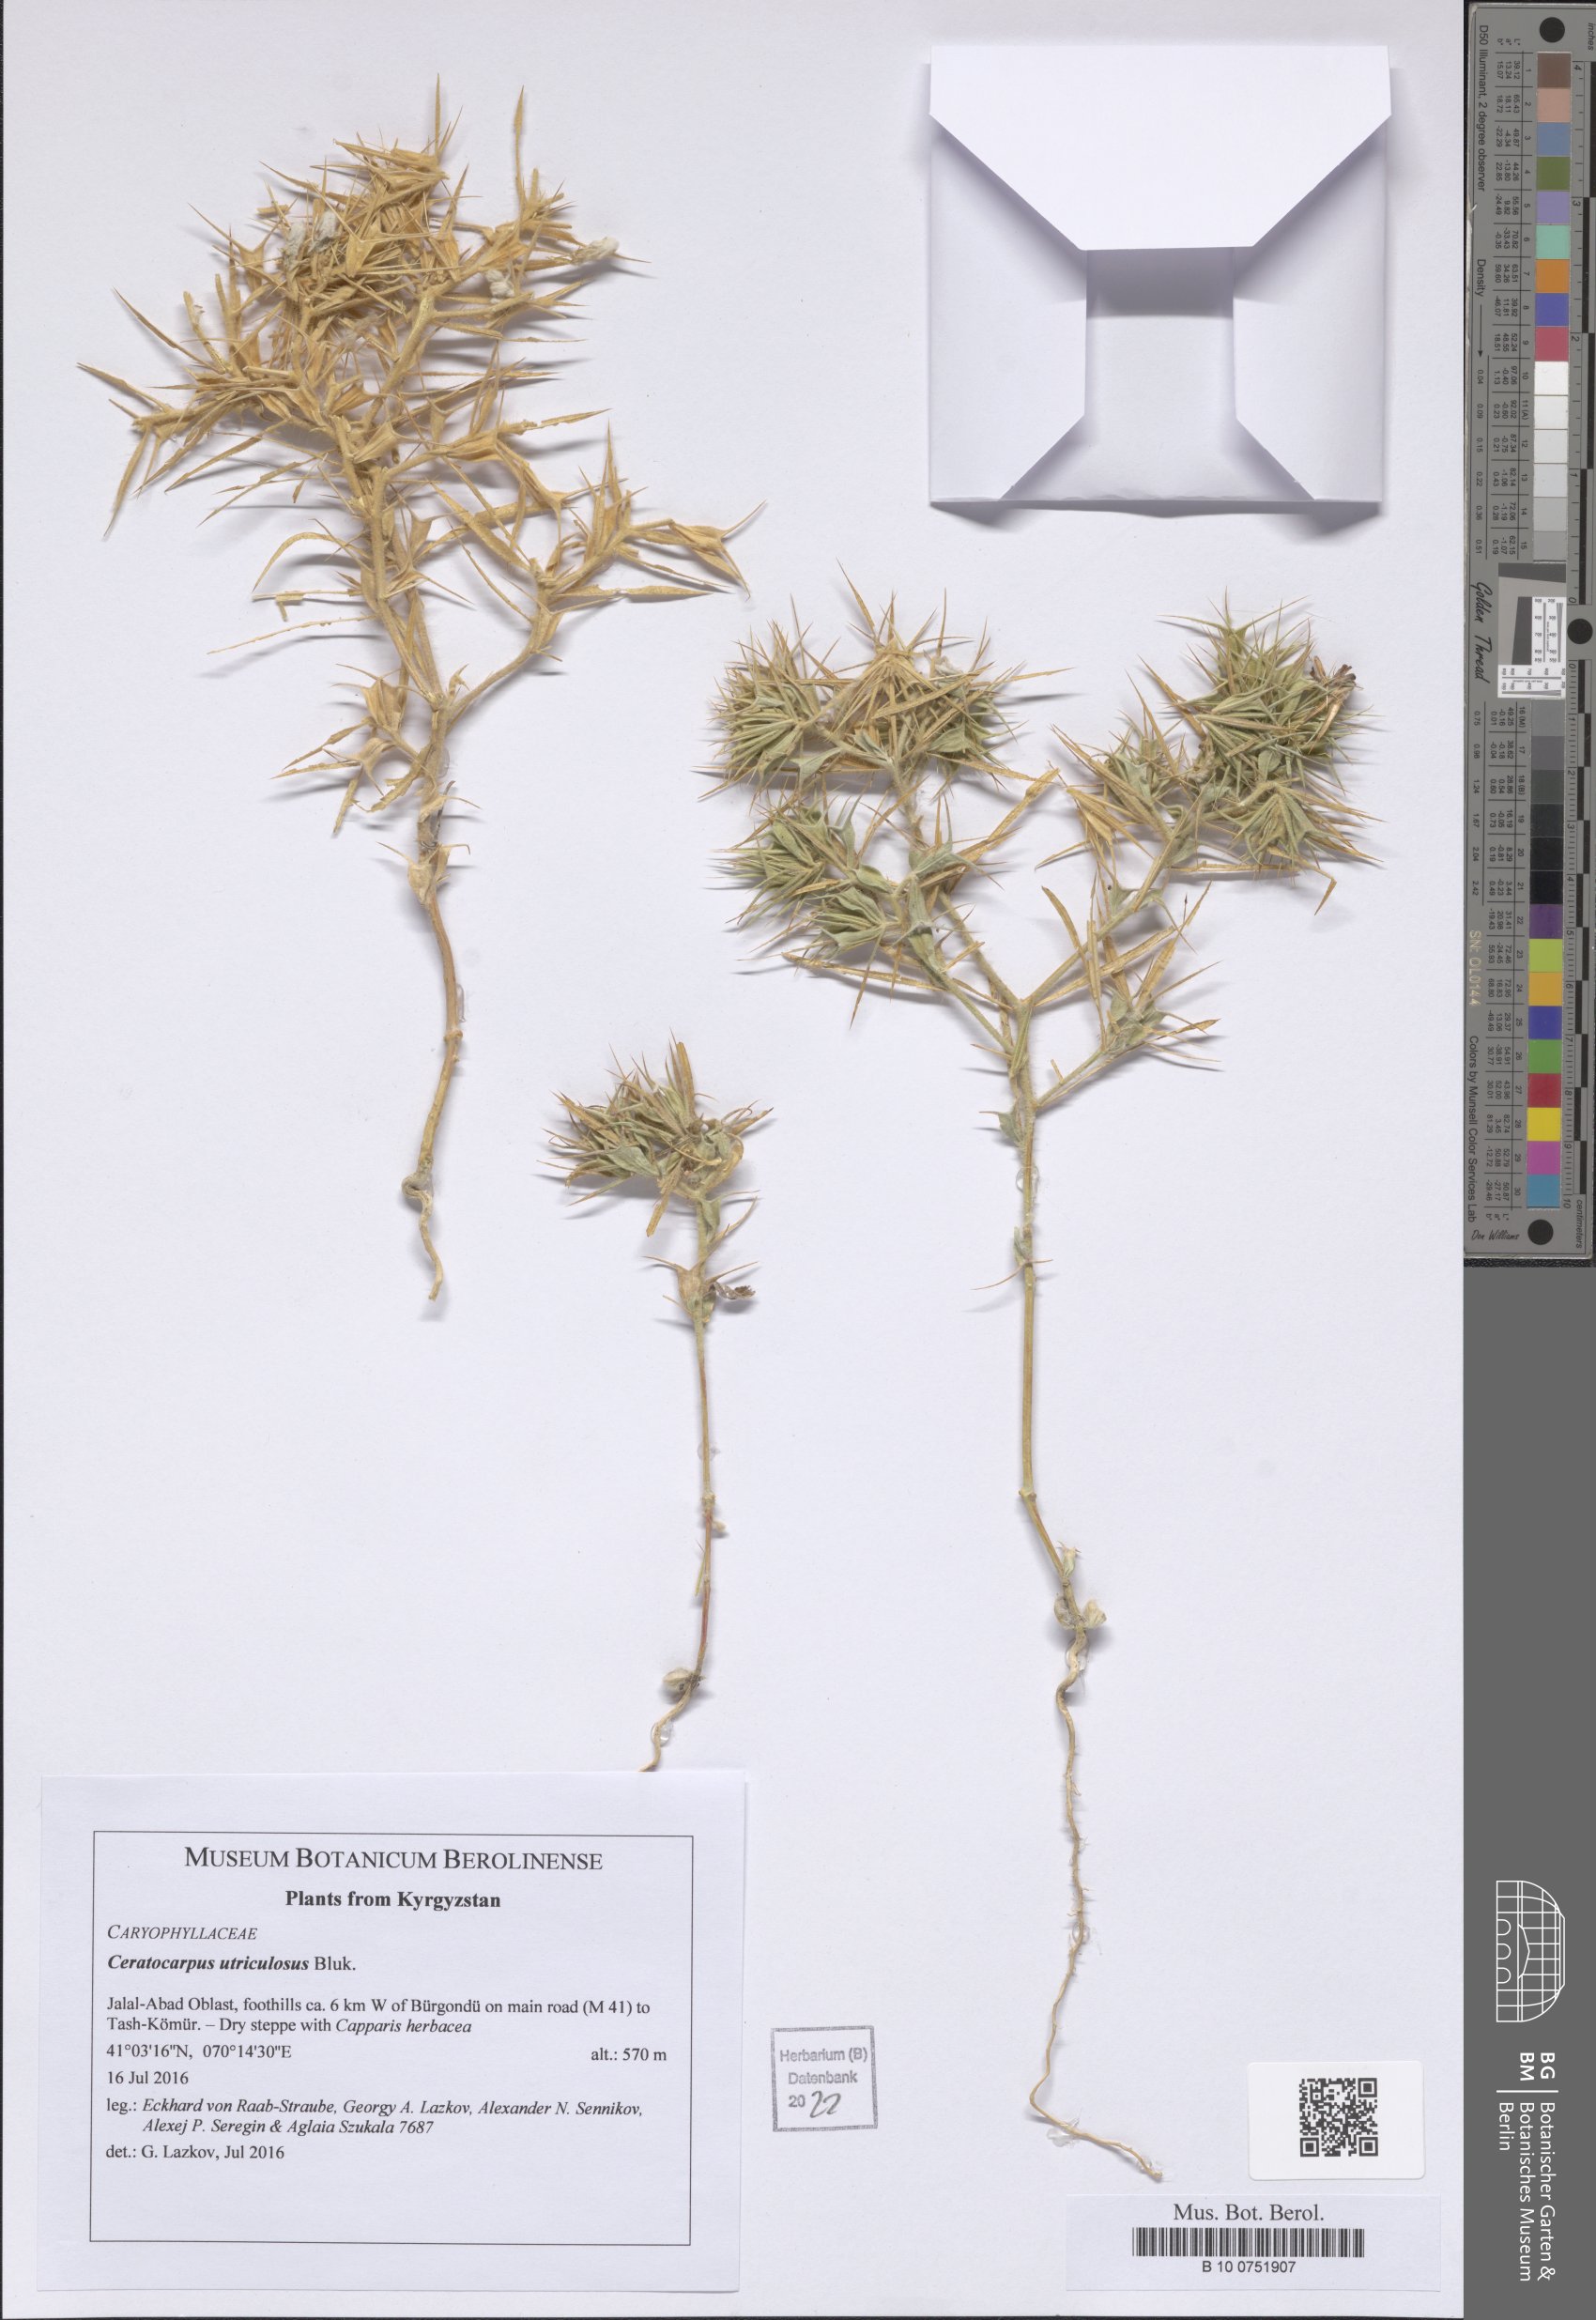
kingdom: Plantae
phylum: Tracheophyta
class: Magnoliopsida
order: Caryophyllales
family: Amaranthaceae
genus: Ceratocarpus
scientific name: Ceratocarpus arenarius
